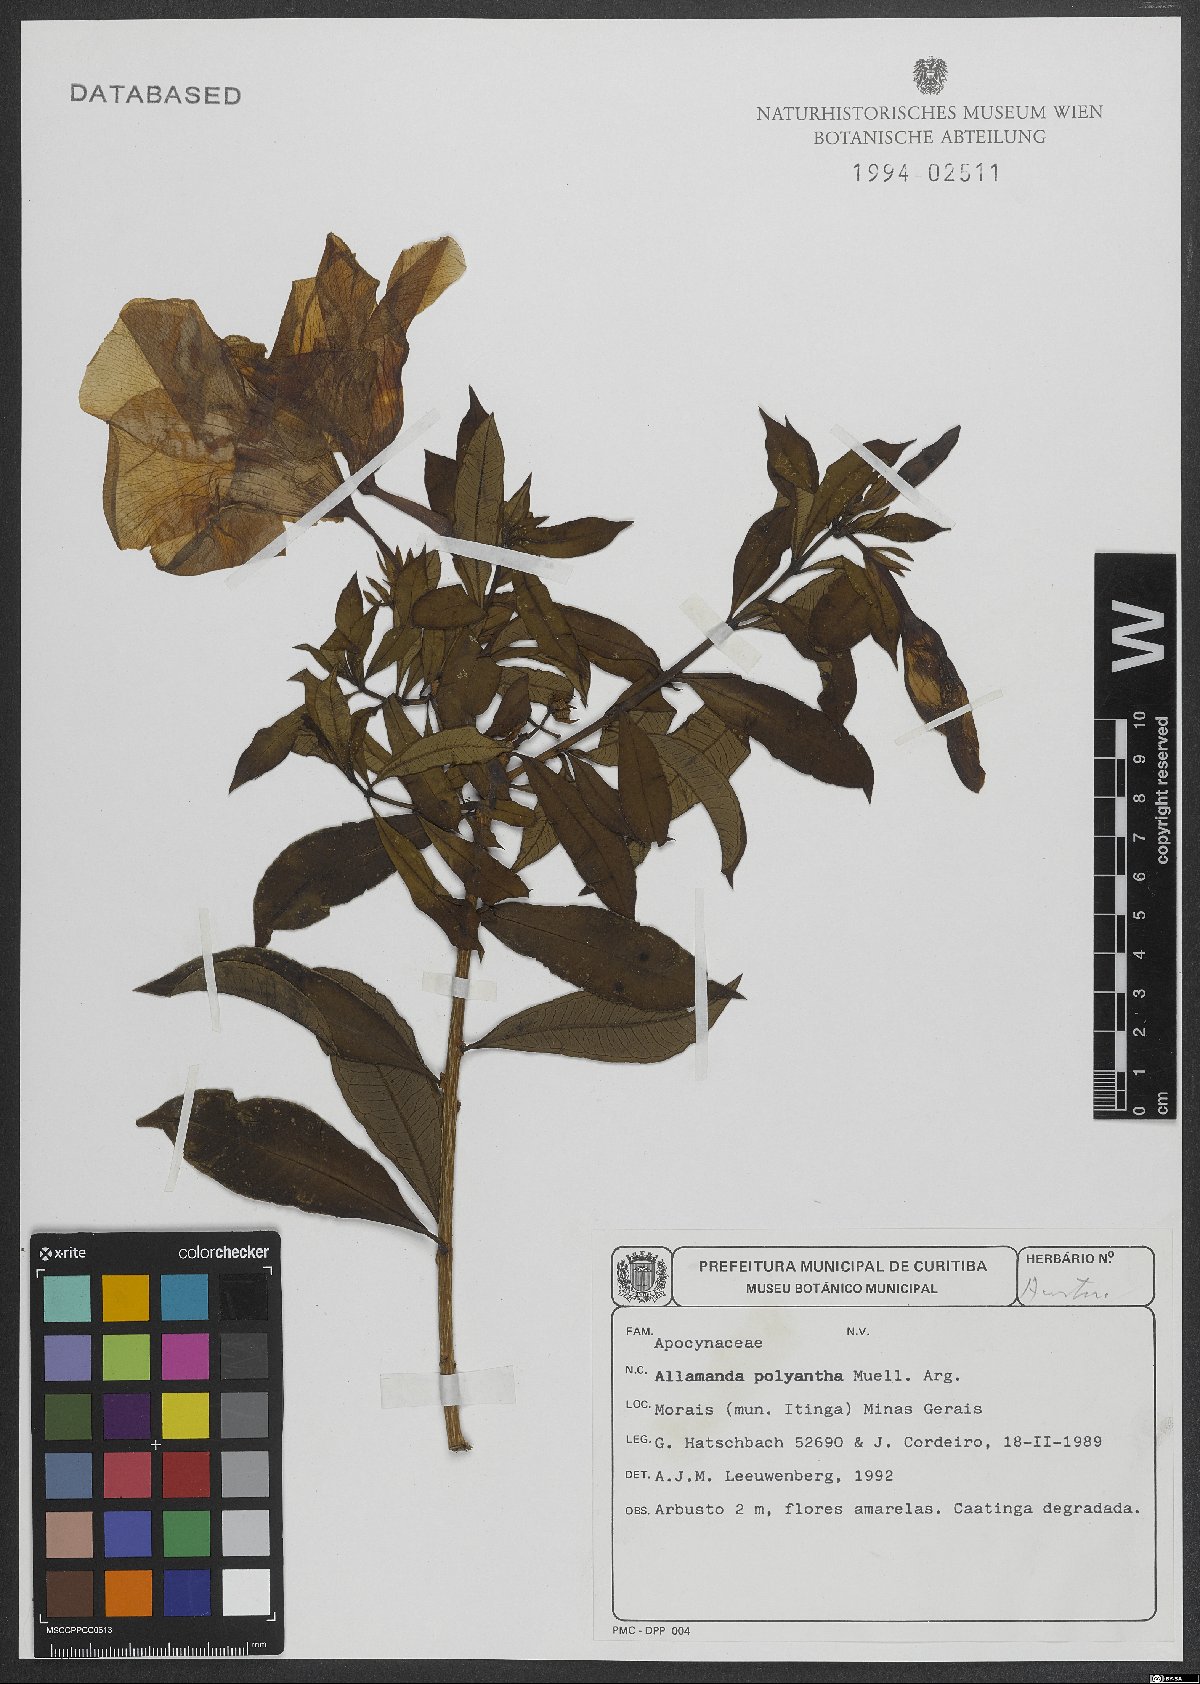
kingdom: Plantae
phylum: Tracheophyta
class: Magnoliopsida
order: Gentianales
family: Apocynaceae
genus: Allamanda
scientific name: Allamanda polyantha
